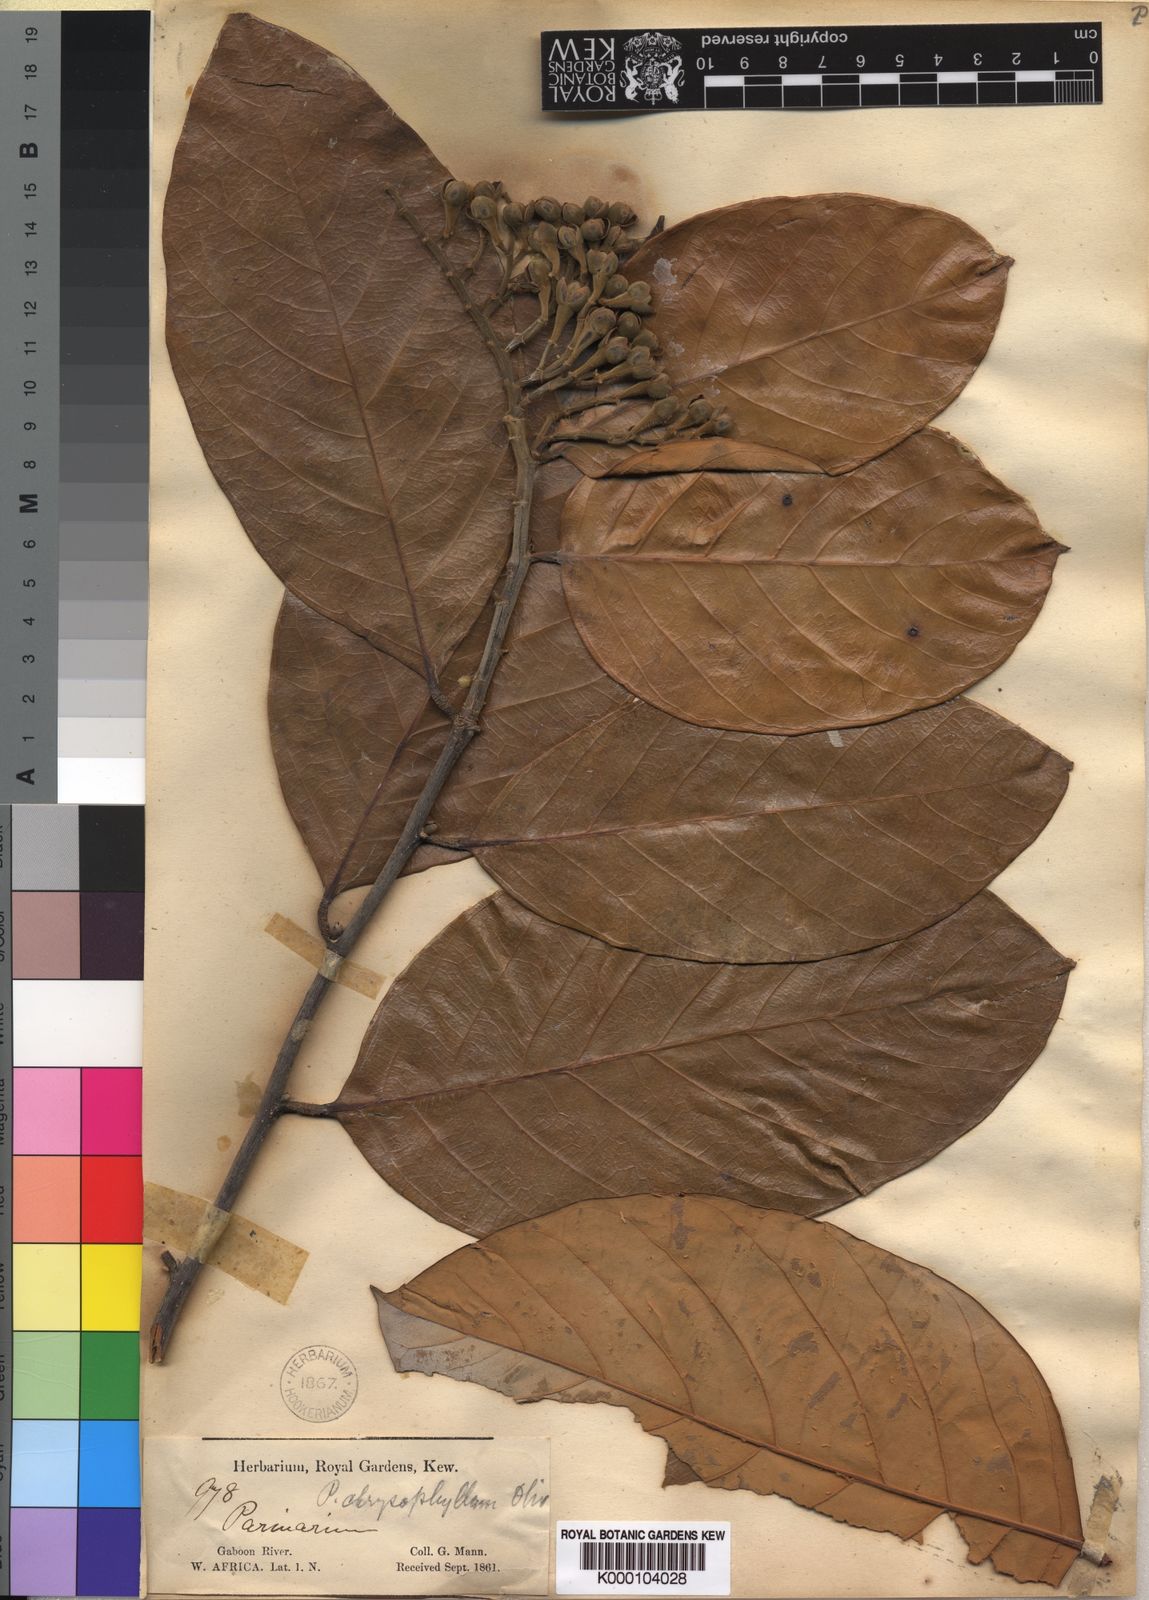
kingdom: Plantae
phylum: Tracheophyta
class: Magnoliopsida
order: Malpighiales
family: Chrysobalanaceae
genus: Maranthes
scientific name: Maranthes
